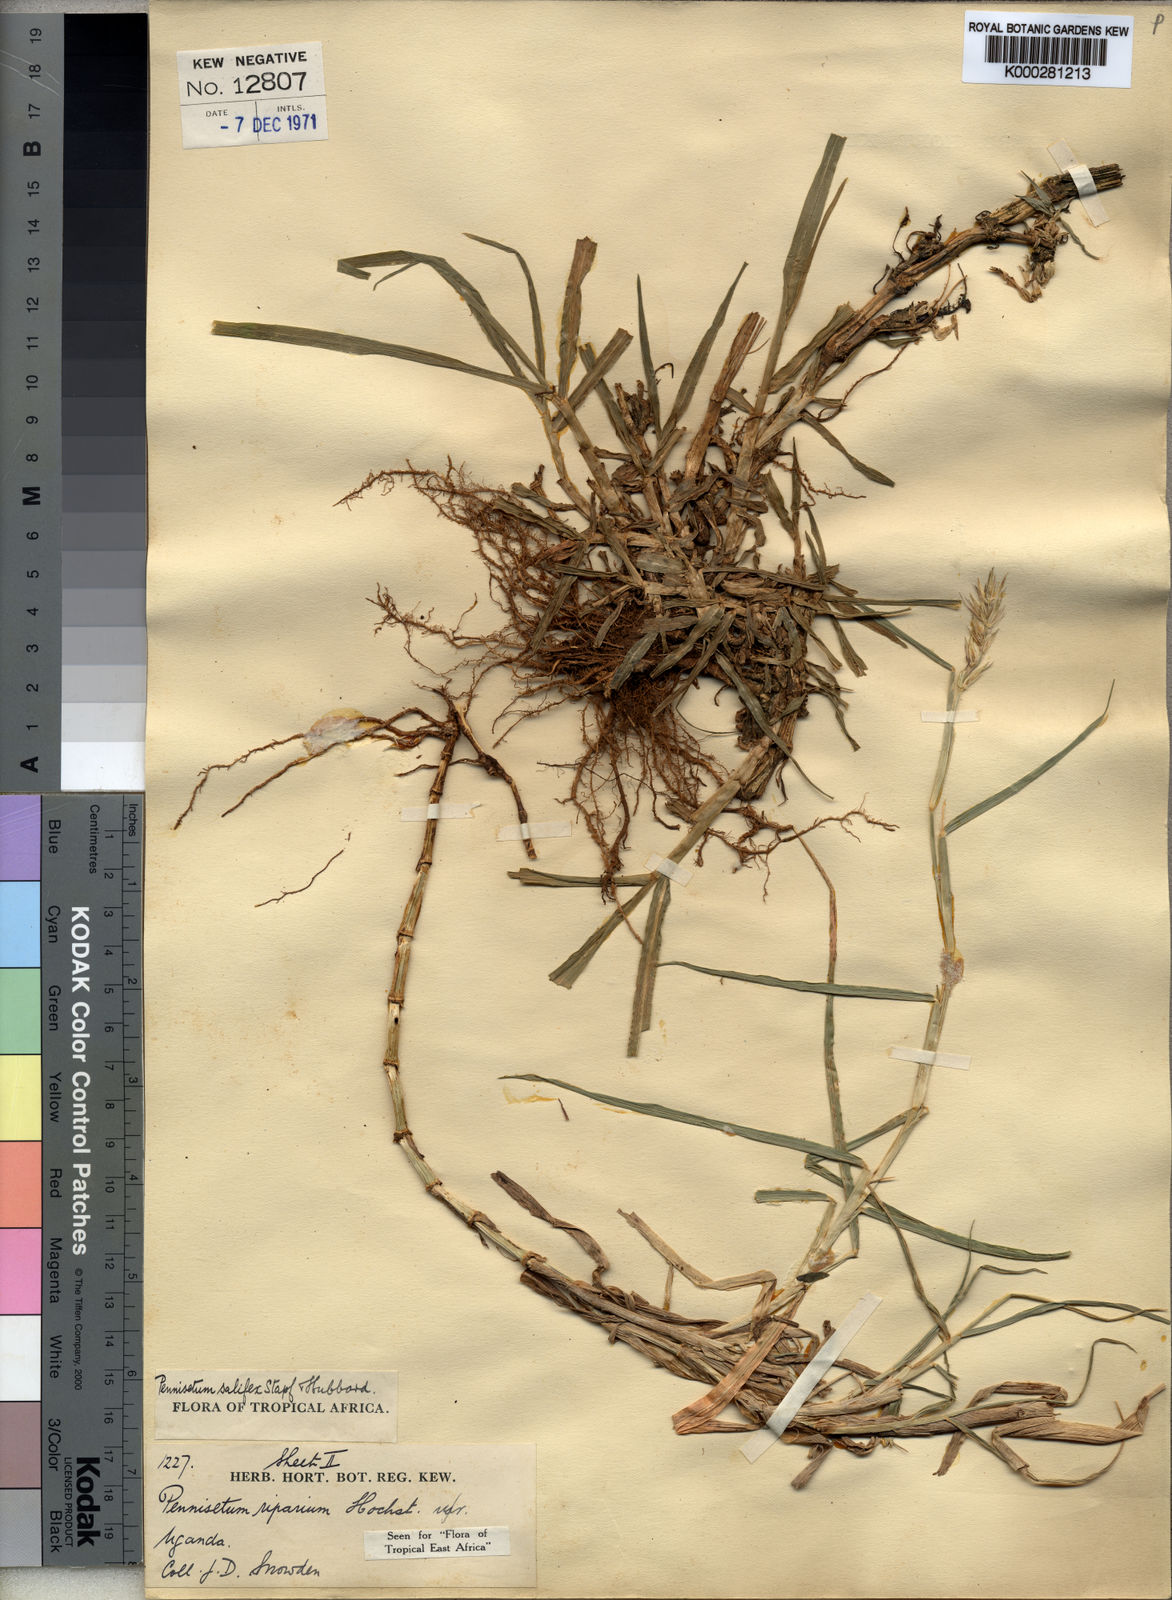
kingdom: Plantae
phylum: Tracheophyta
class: Liliopsida
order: Poales
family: Poaceae
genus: Cenchrus
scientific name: Cenchrus riparius
